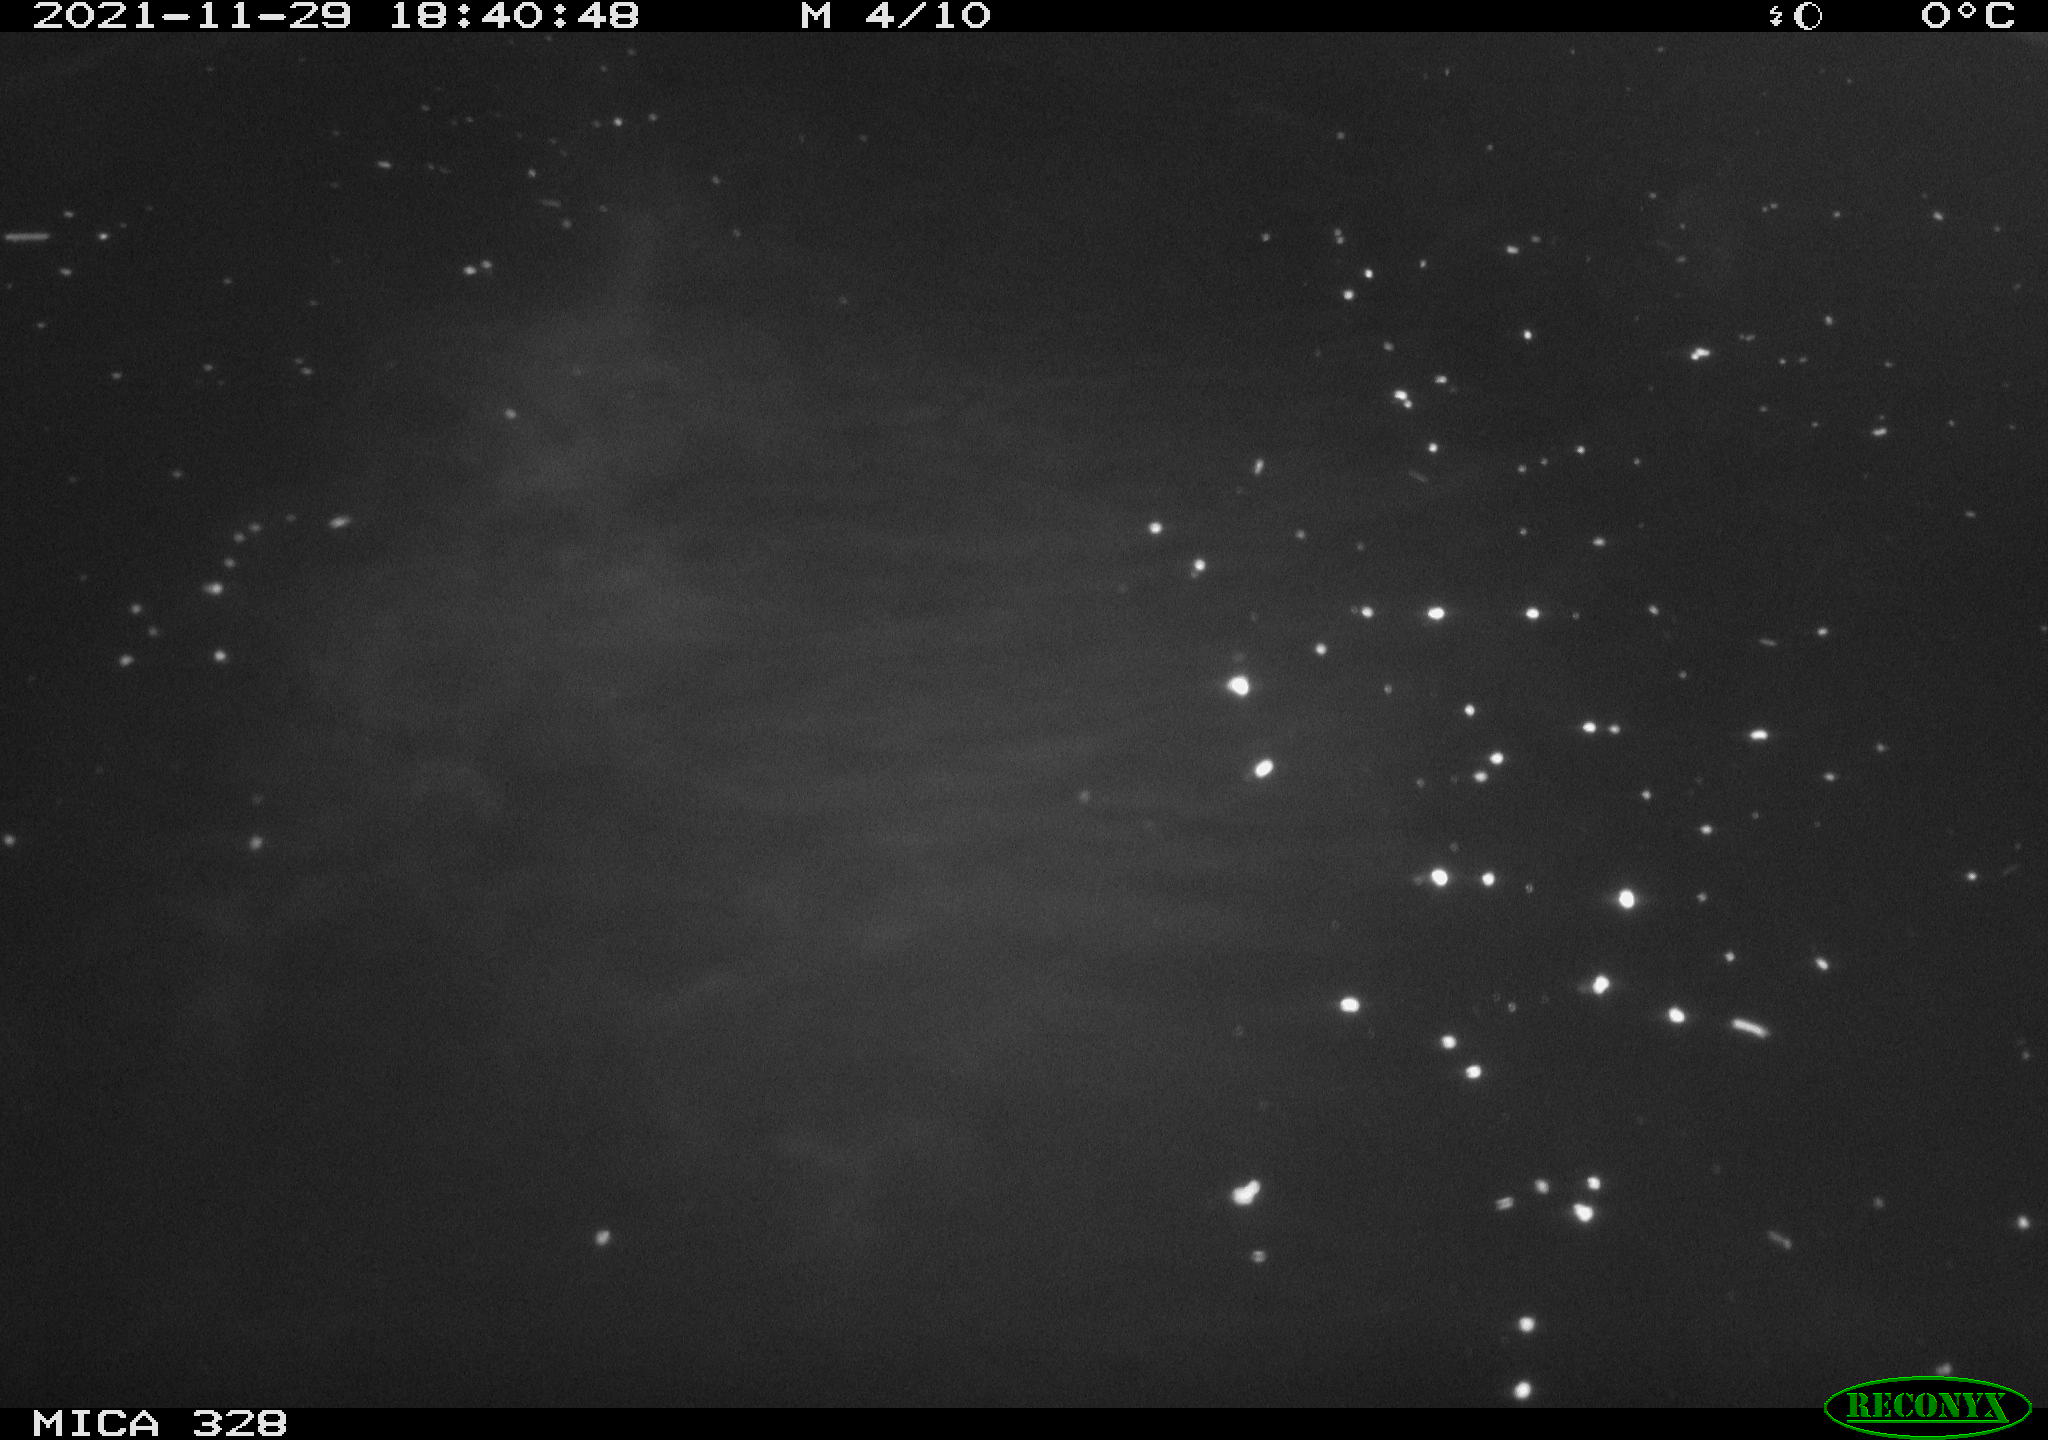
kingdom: Animalia
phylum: Chordata
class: Mammalia
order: Rodentia
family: Cricetidae
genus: Ondatra
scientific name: Ondatra zibethicus
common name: Muskrat
